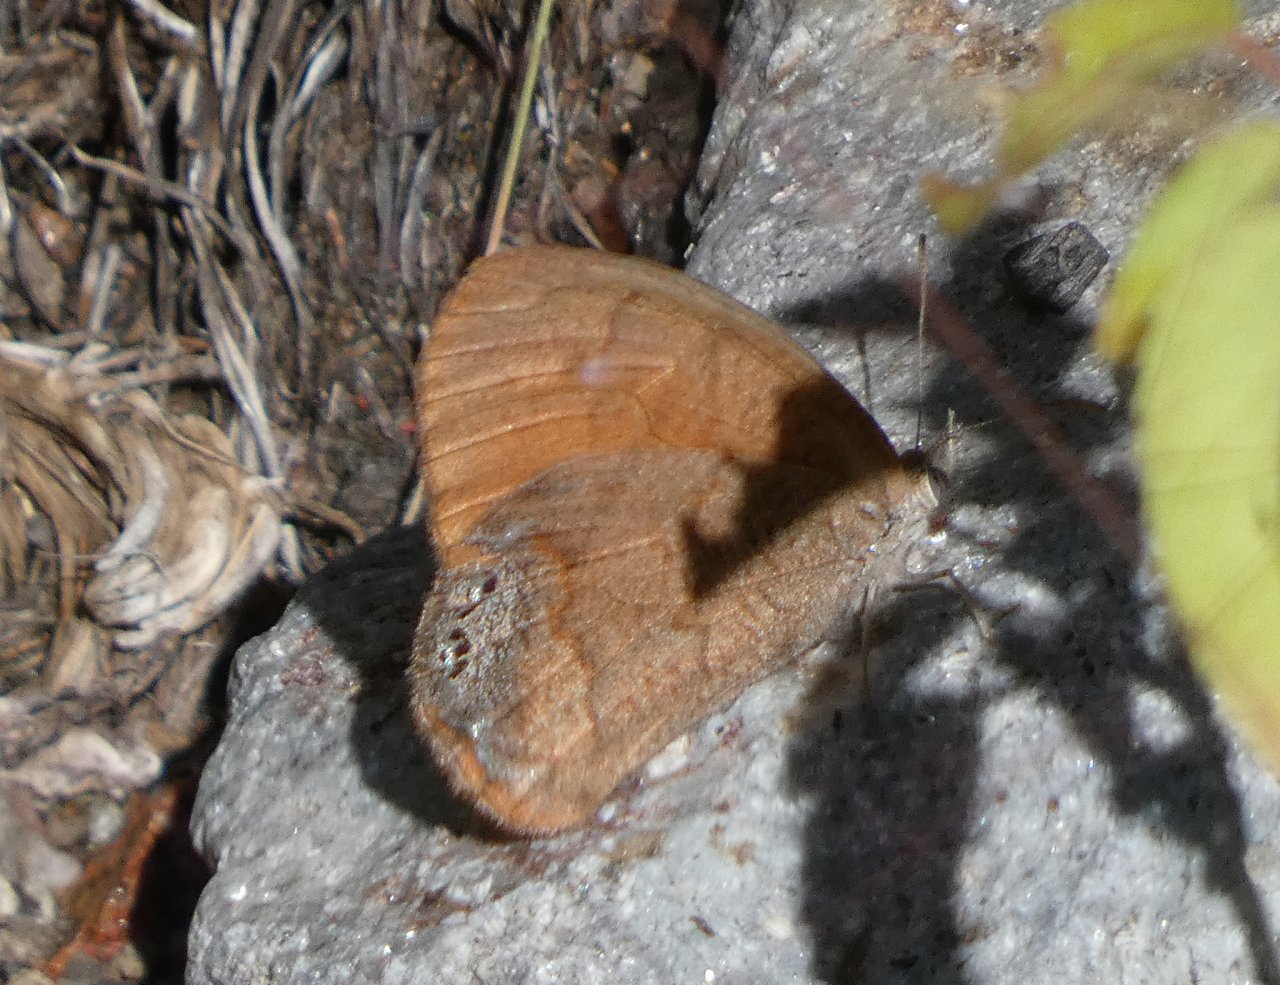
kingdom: Animalia
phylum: Arthropoda
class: Insecta
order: Lepidoptera
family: Nymphalidae
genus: Euptychia
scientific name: Euptychia Cyllopsis pertepida
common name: Canyonland Satyr
